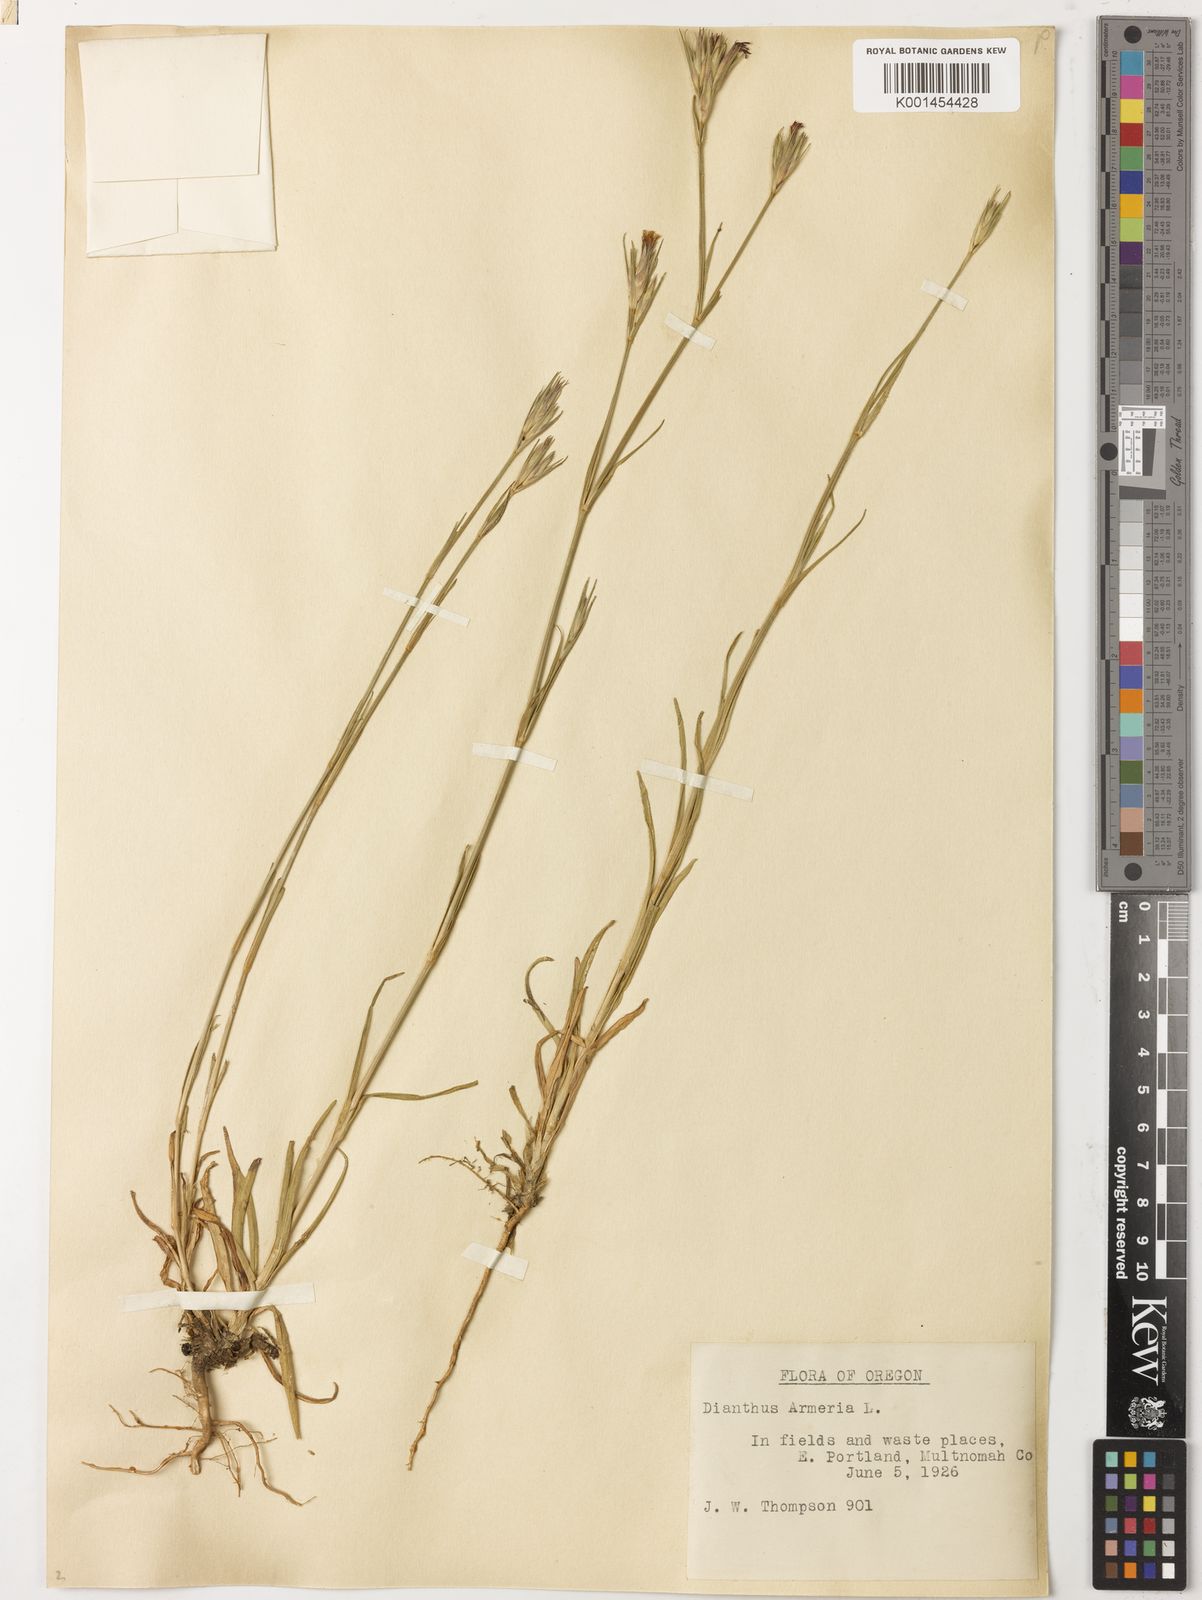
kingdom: Plantae
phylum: Tracheophyta
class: Magnoliopsida
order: Caryophyllales
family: Caryophyllaceae
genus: Dianthus
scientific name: Dianthus armeria
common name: Deptford pink
